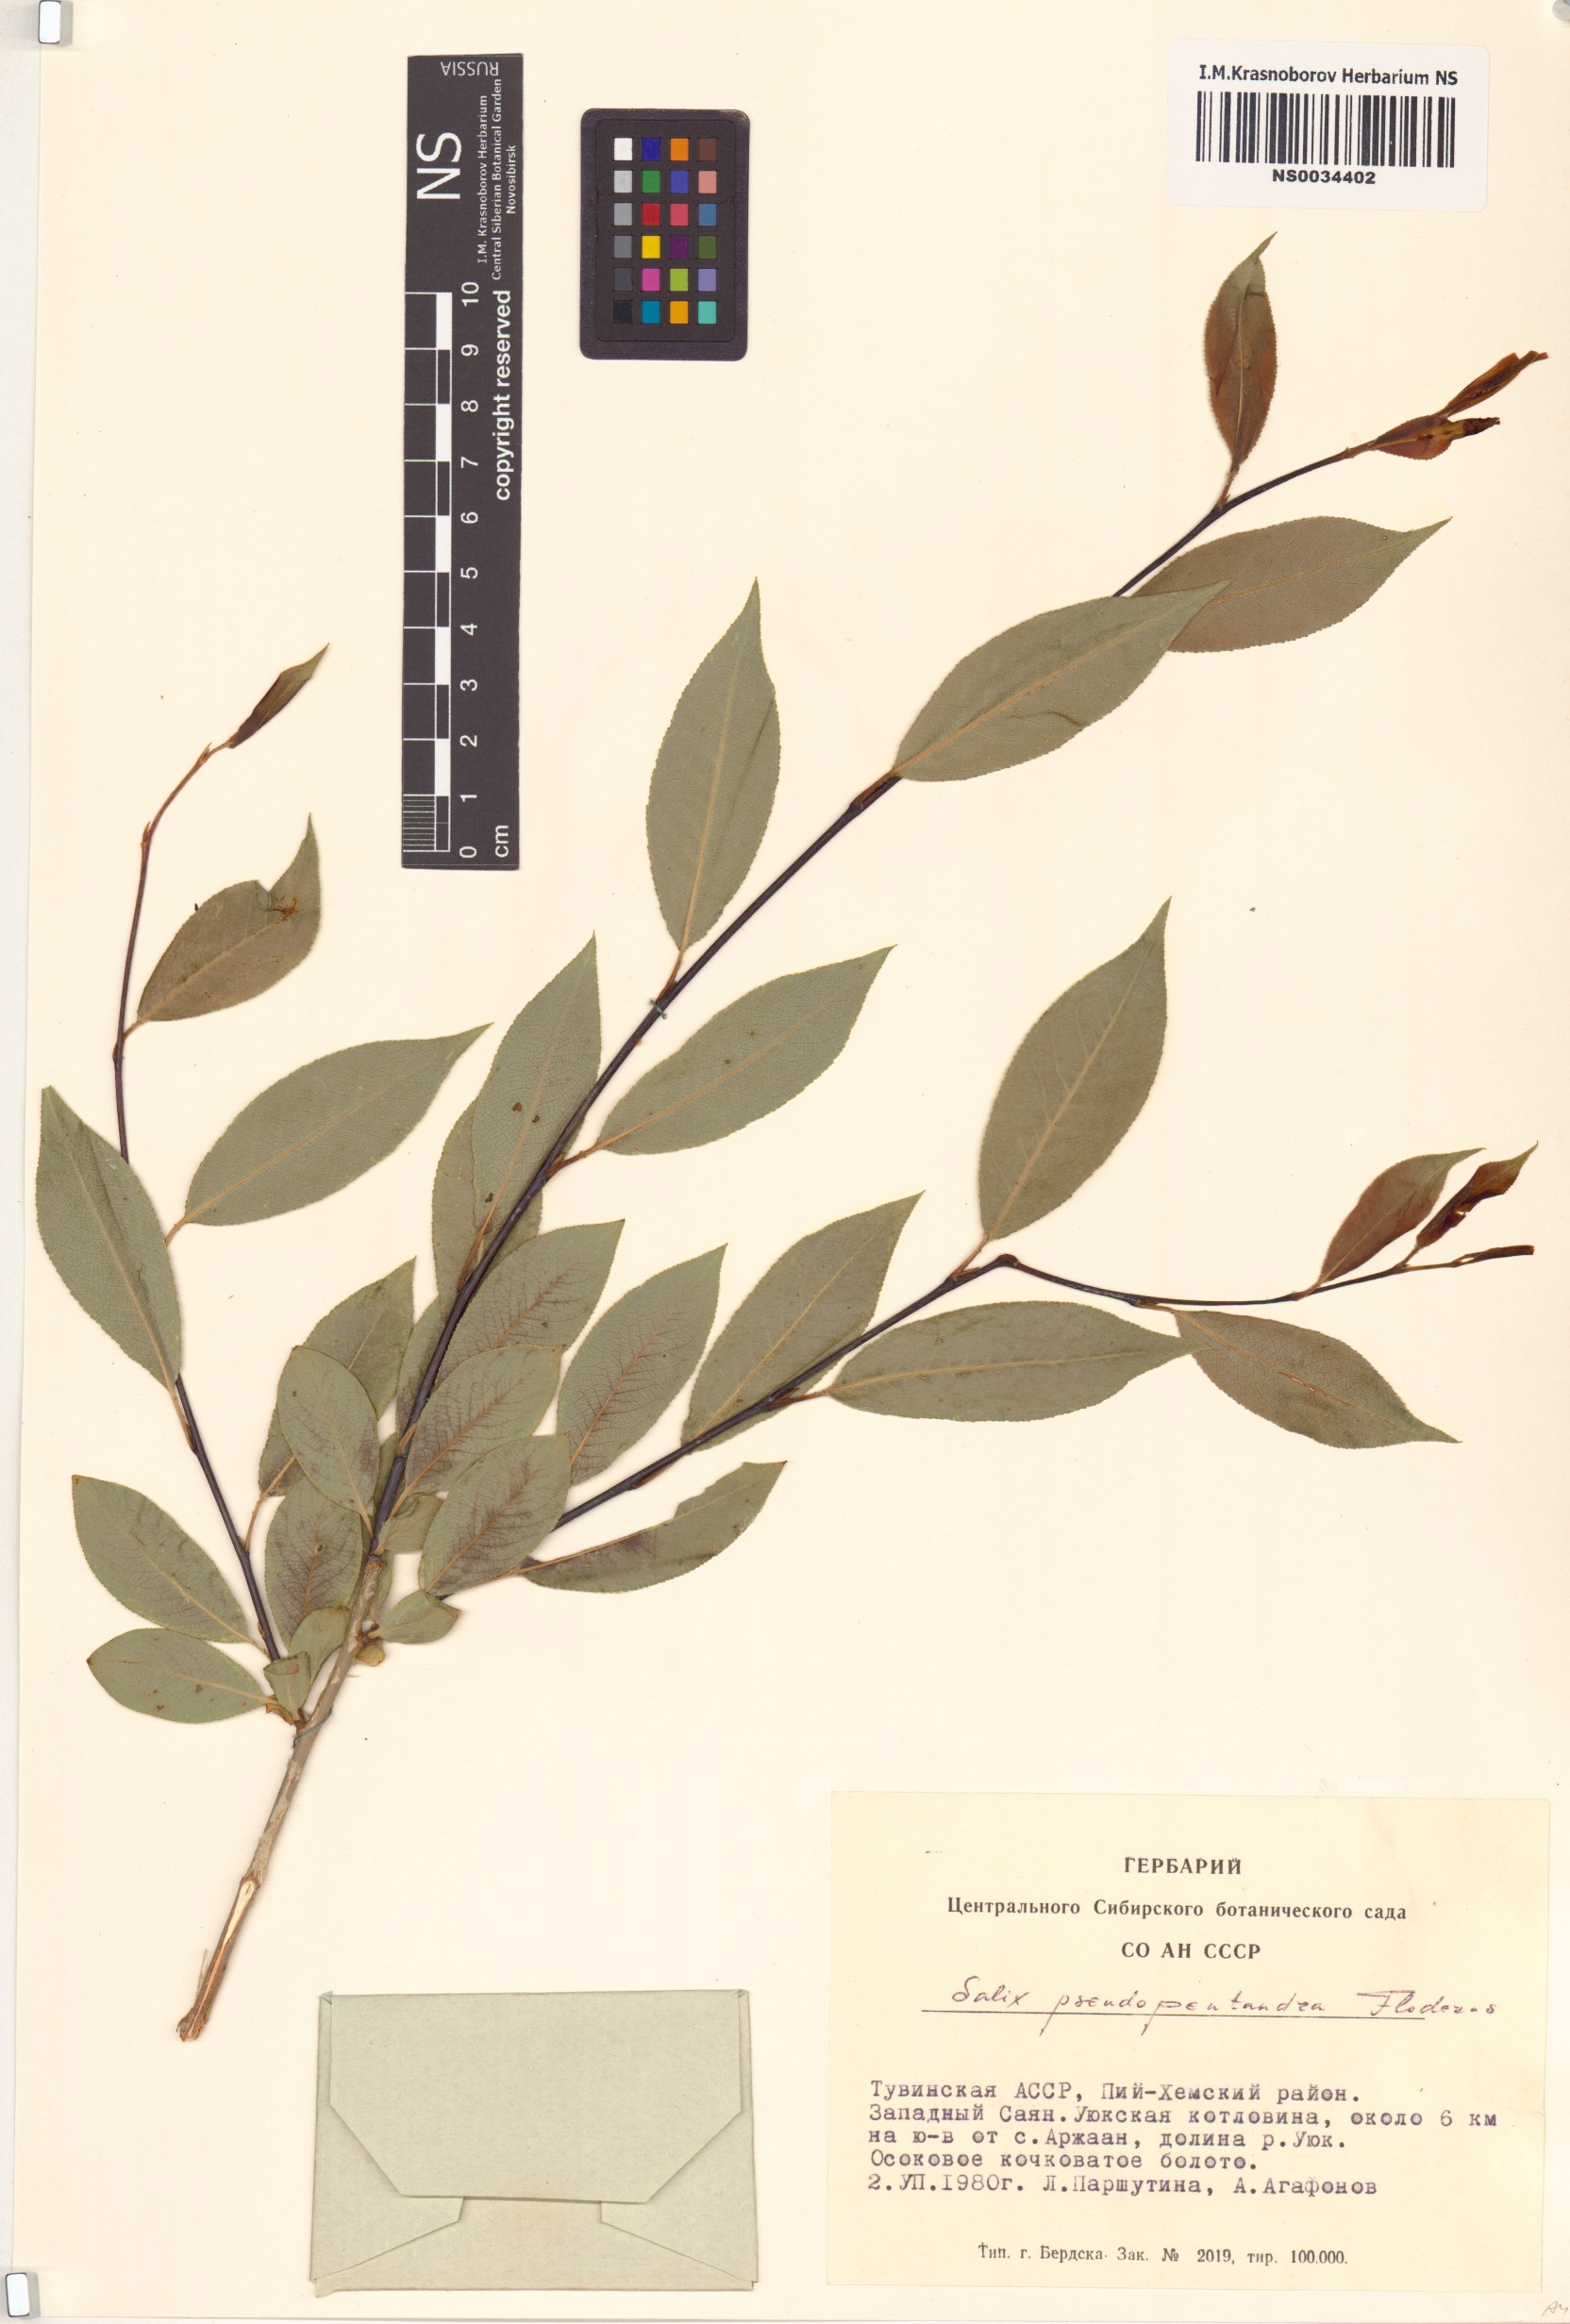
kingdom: Plantae
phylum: Tracheophyta
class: Magnoliopsida
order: Malpighiales
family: Salicaceae
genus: Salix
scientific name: Salix pseudopentandra
